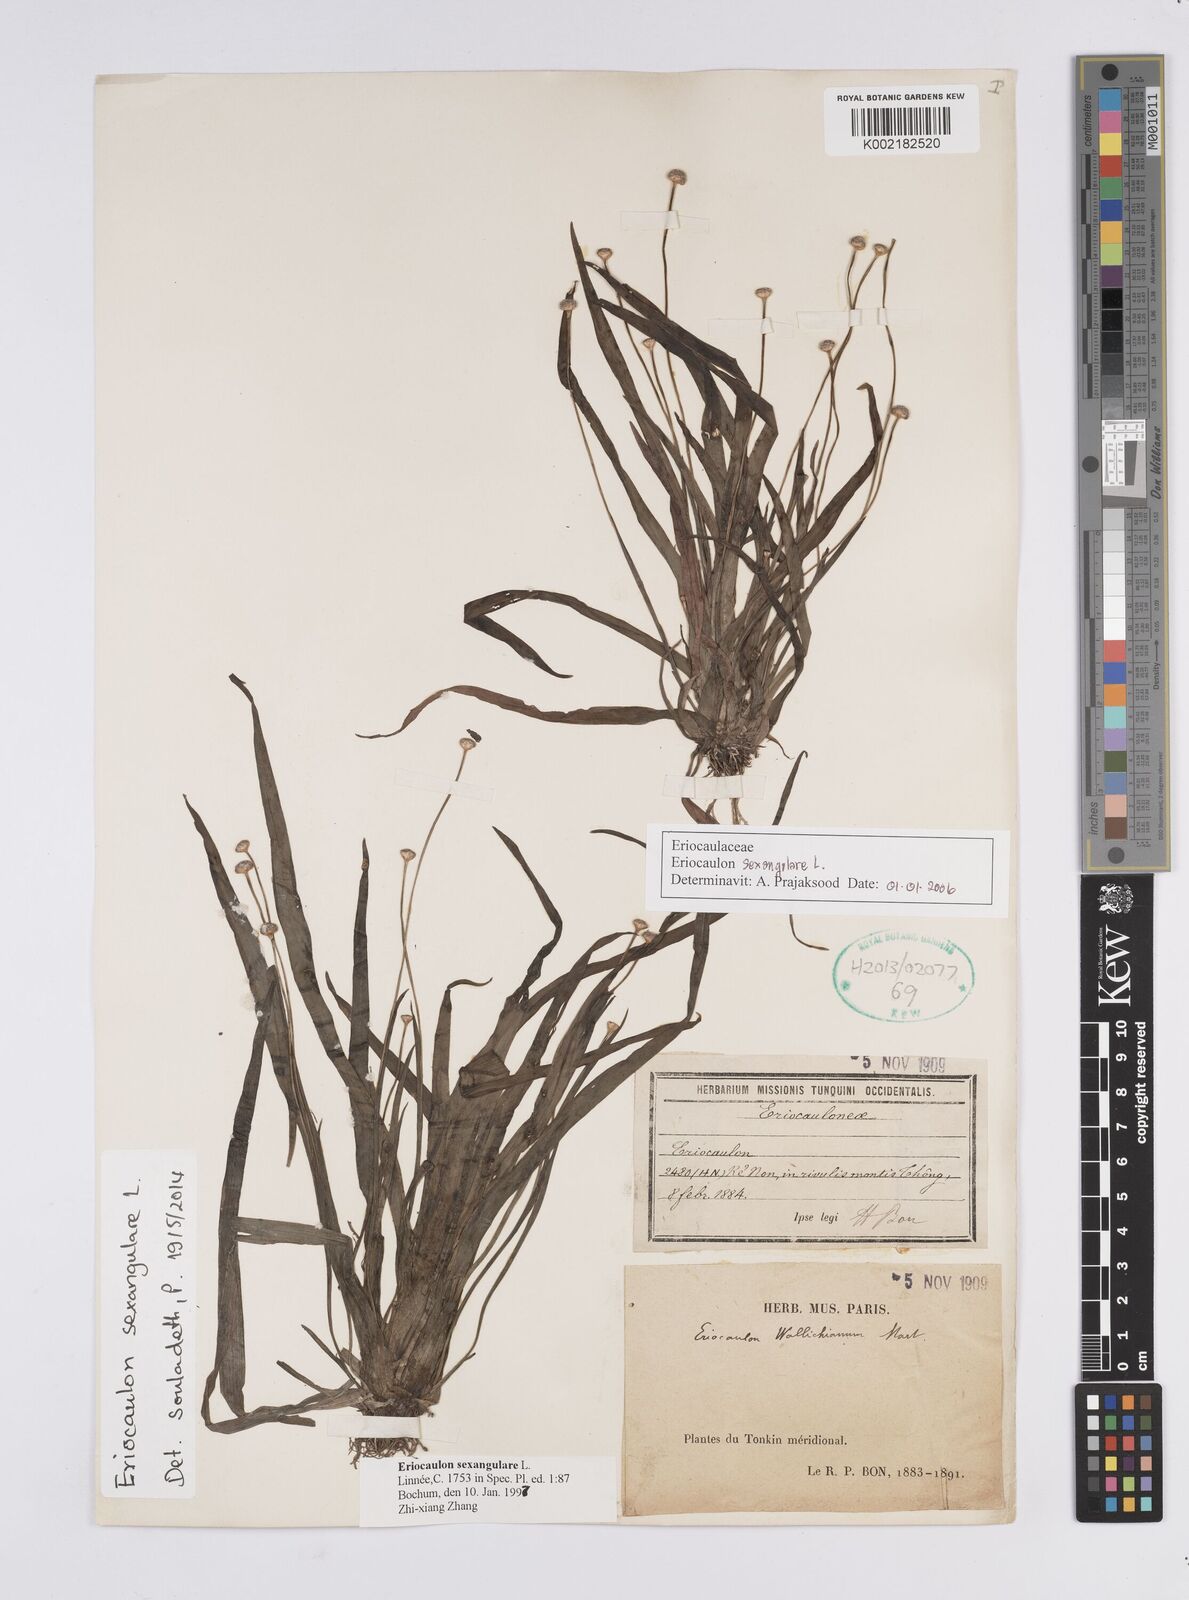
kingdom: Plantae
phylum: Tracheophyta
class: Liliopsida
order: Poales
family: Eriocaulaceae
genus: Eriocaulon
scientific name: Eriocaulon sexangulare
